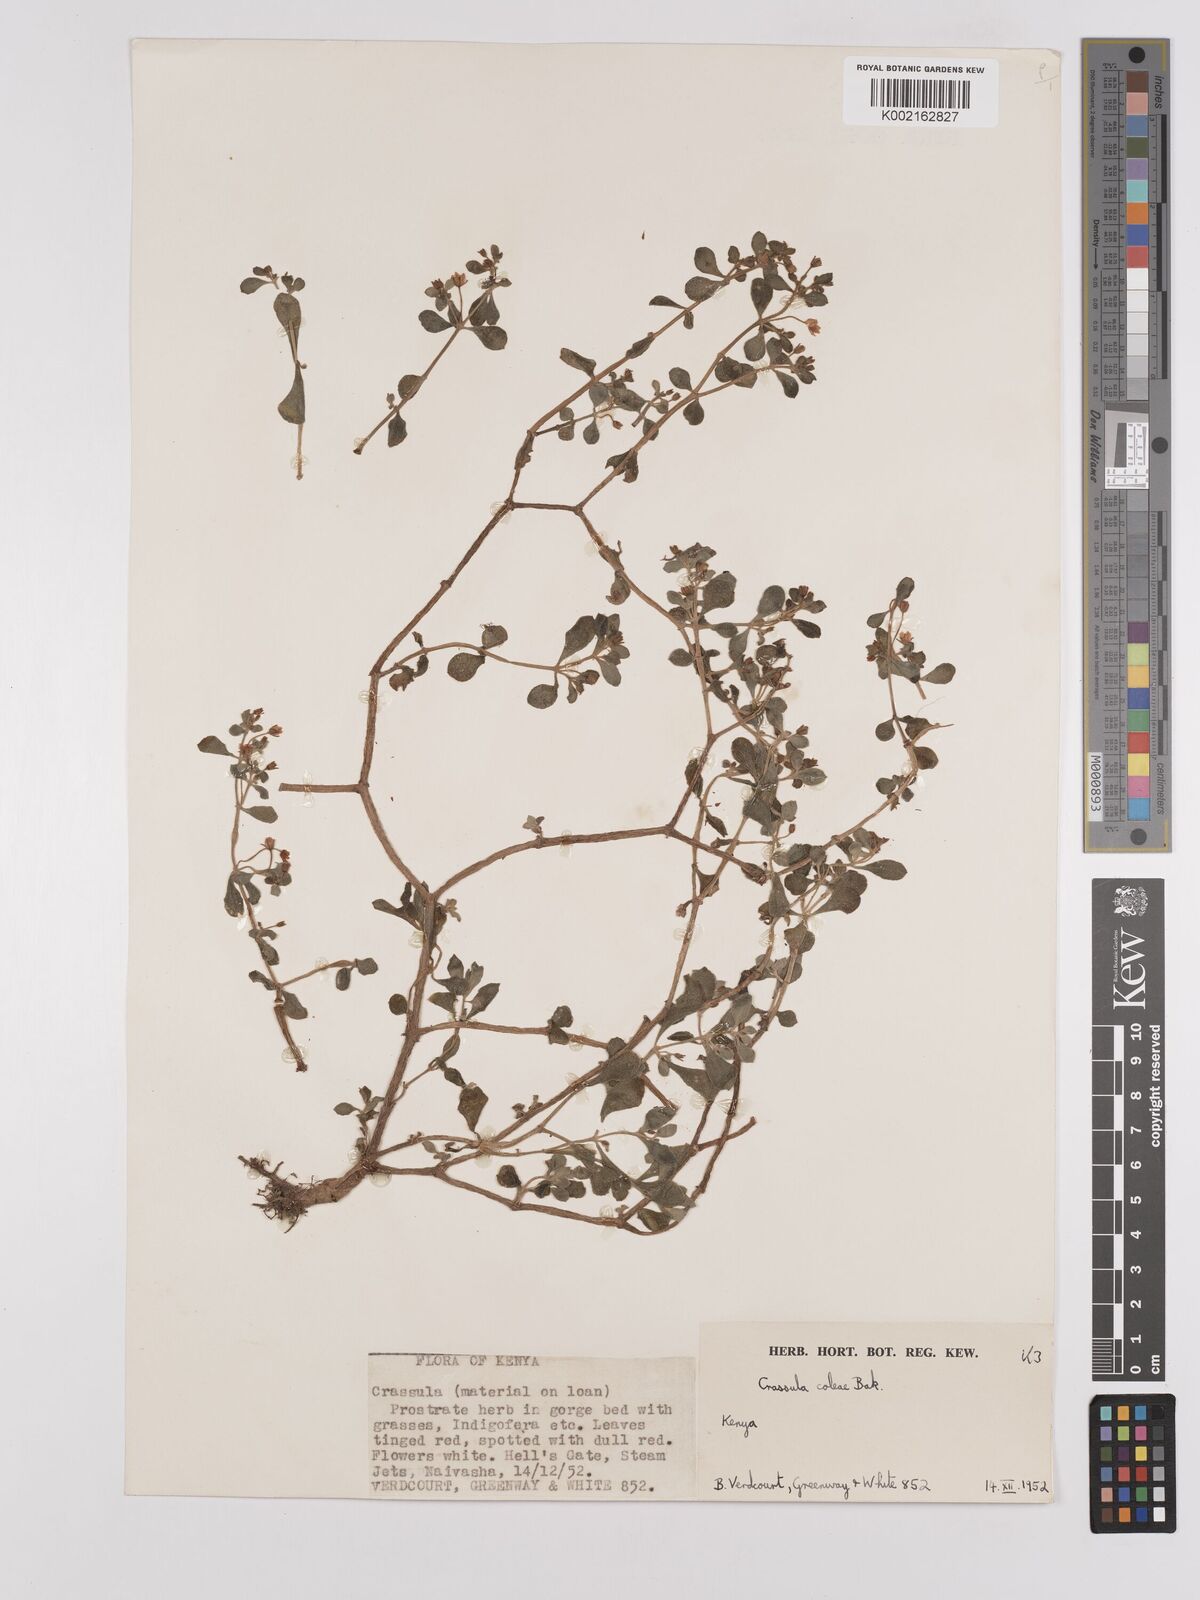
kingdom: Plantae
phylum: Tracheophyta
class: Magnoliopsida
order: Saxifragales
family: Crassulaceae
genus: Crassula
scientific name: Crassula volkensii
